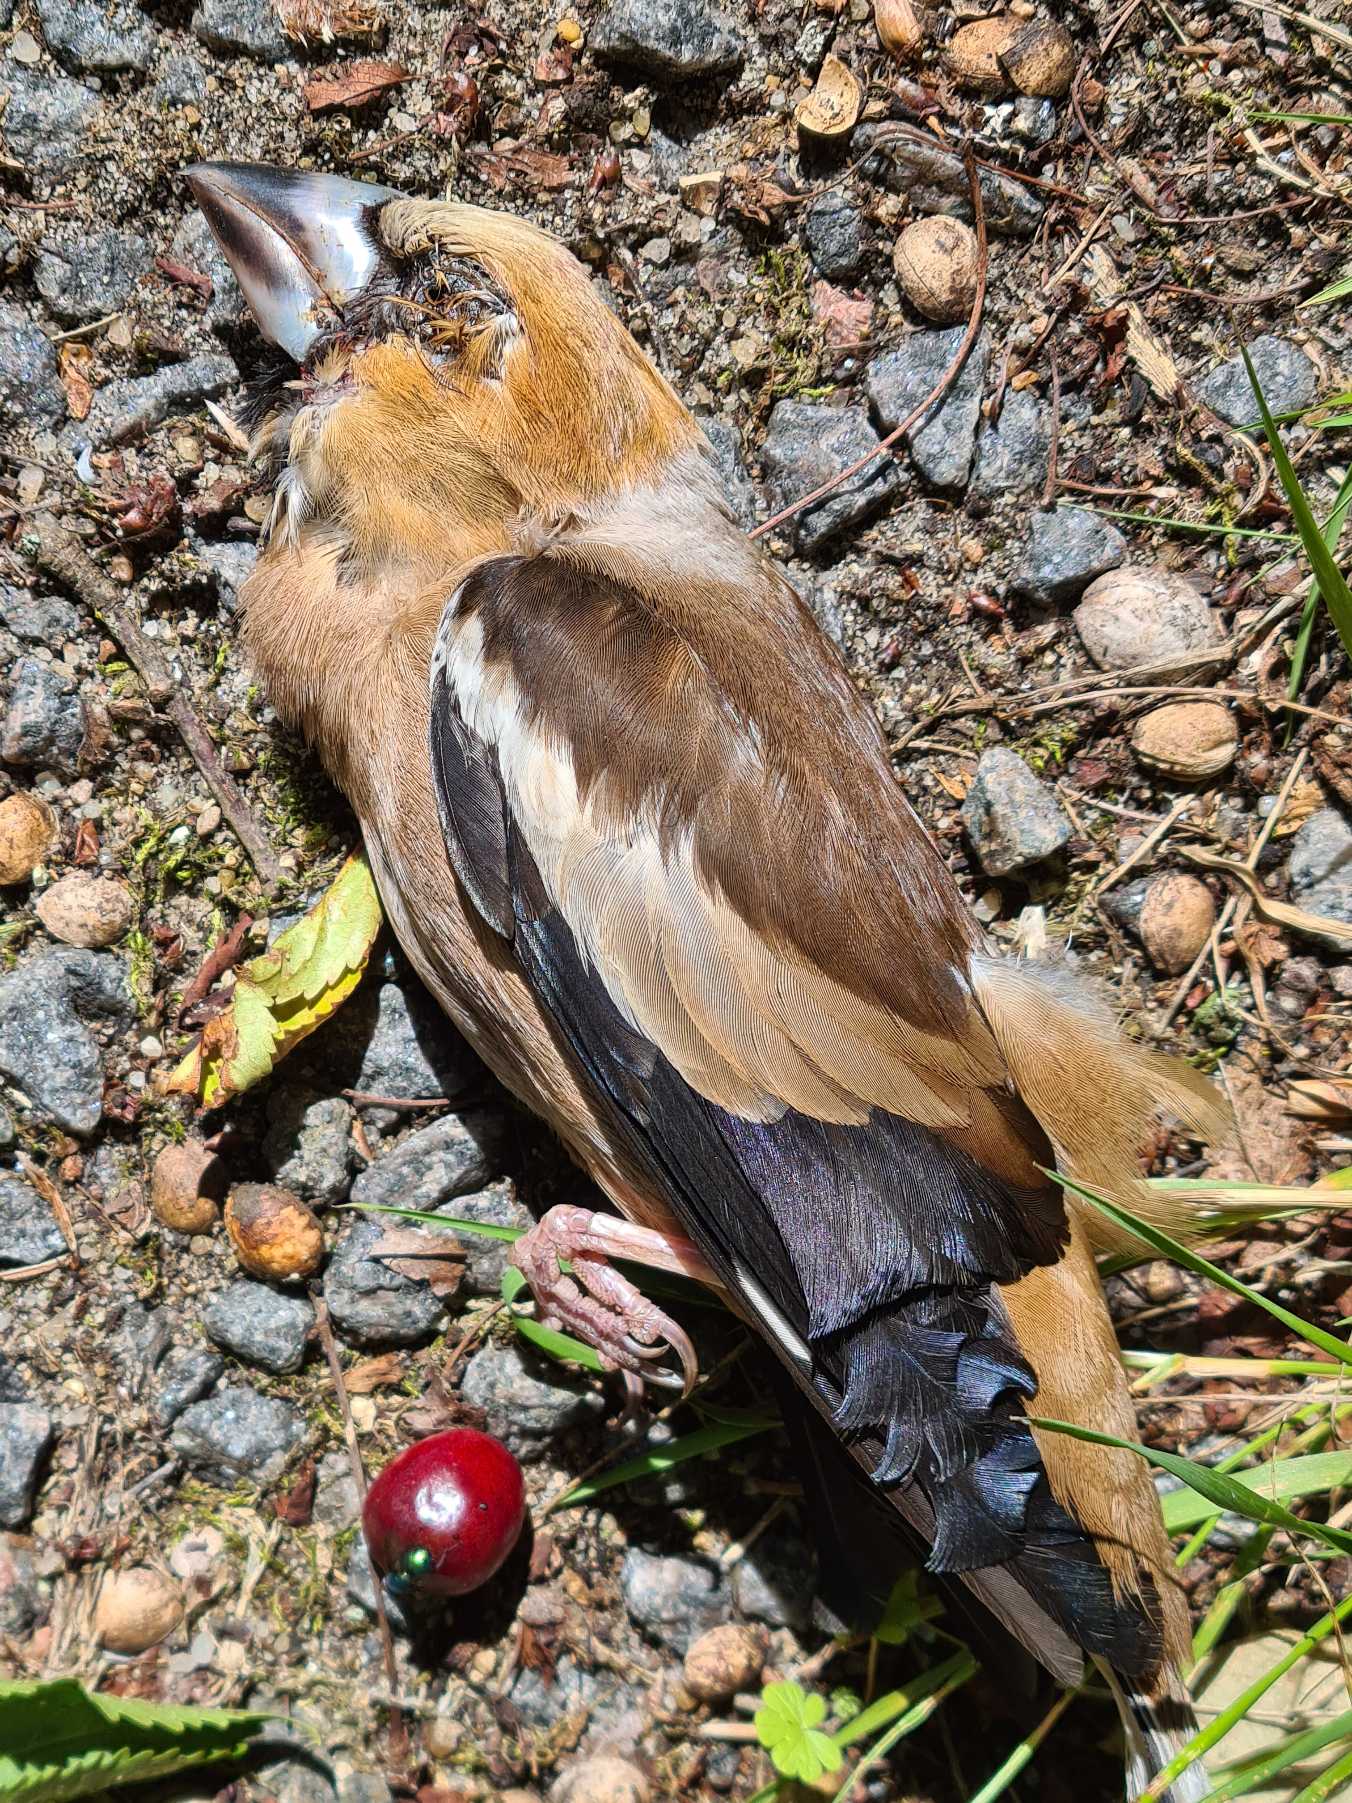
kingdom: Animalia
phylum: Chordata
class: Aves
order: Passeriformes
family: Fringillidae
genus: Coccothraustes
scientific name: Coccothraustes coccothraustes
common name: Kernebider
